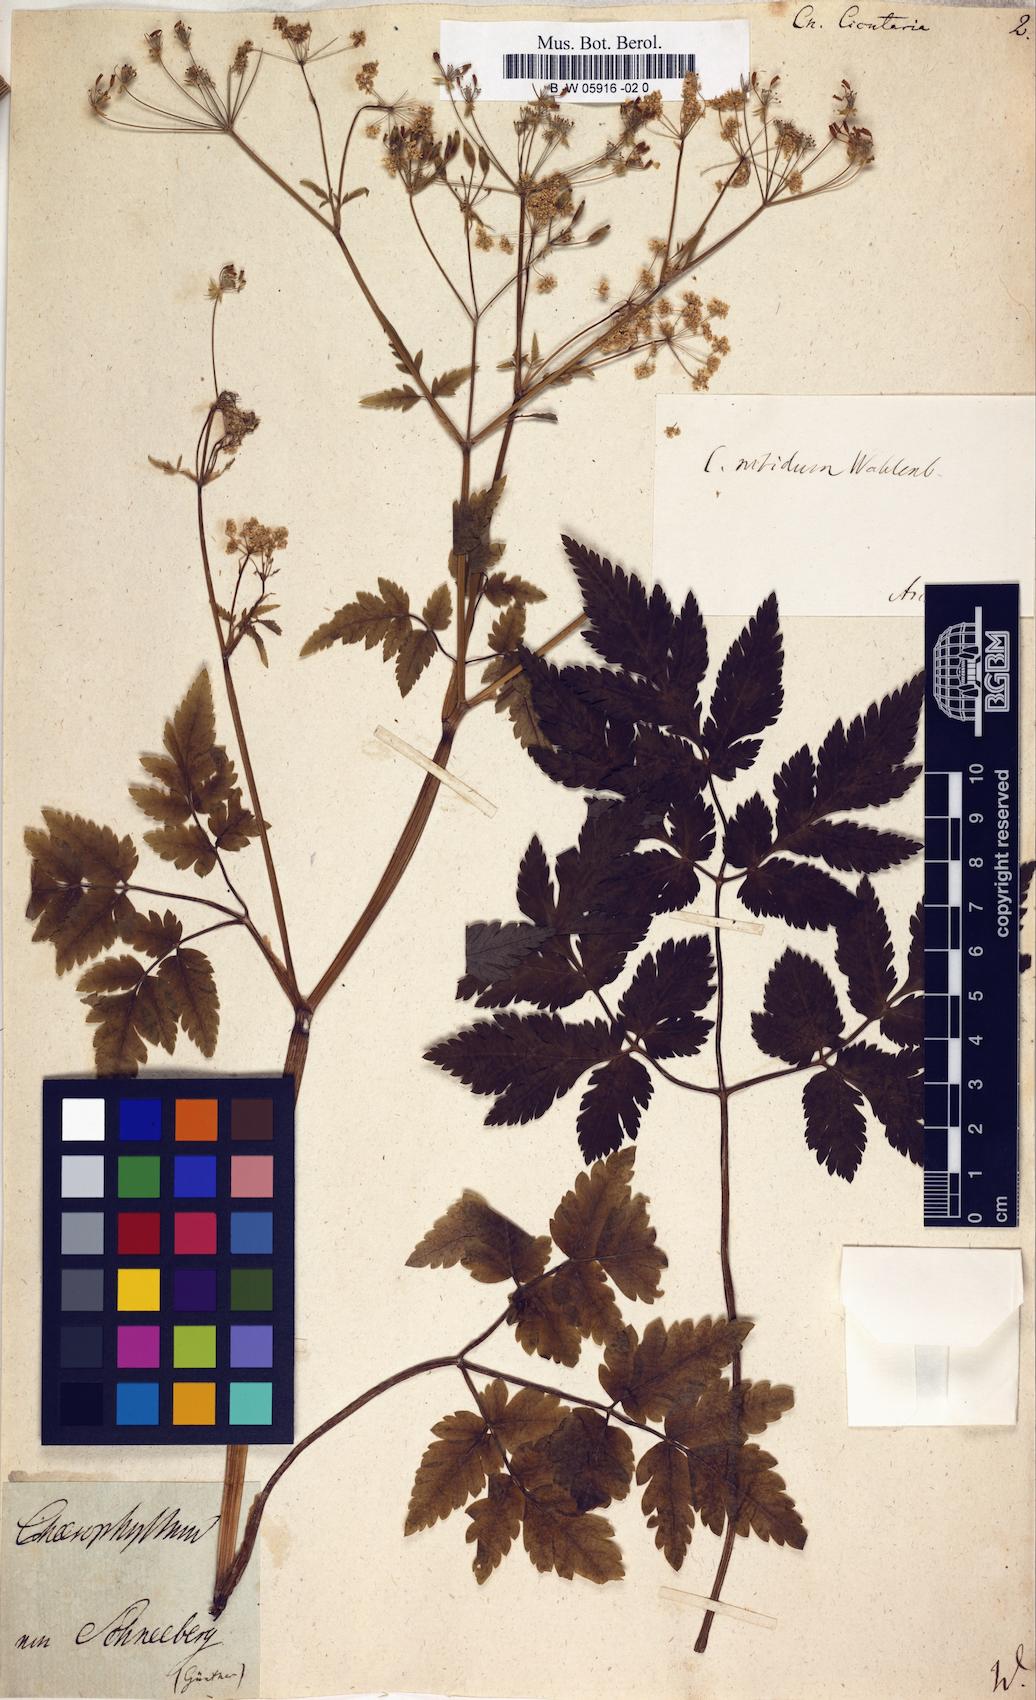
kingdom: Plantae
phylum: Tracheophyta
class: Magnoliopsida
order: Apiales
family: Apiaceae
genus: Chaerophyllum
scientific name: Chaerophyllum hirsutum
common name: Hairy chervil
